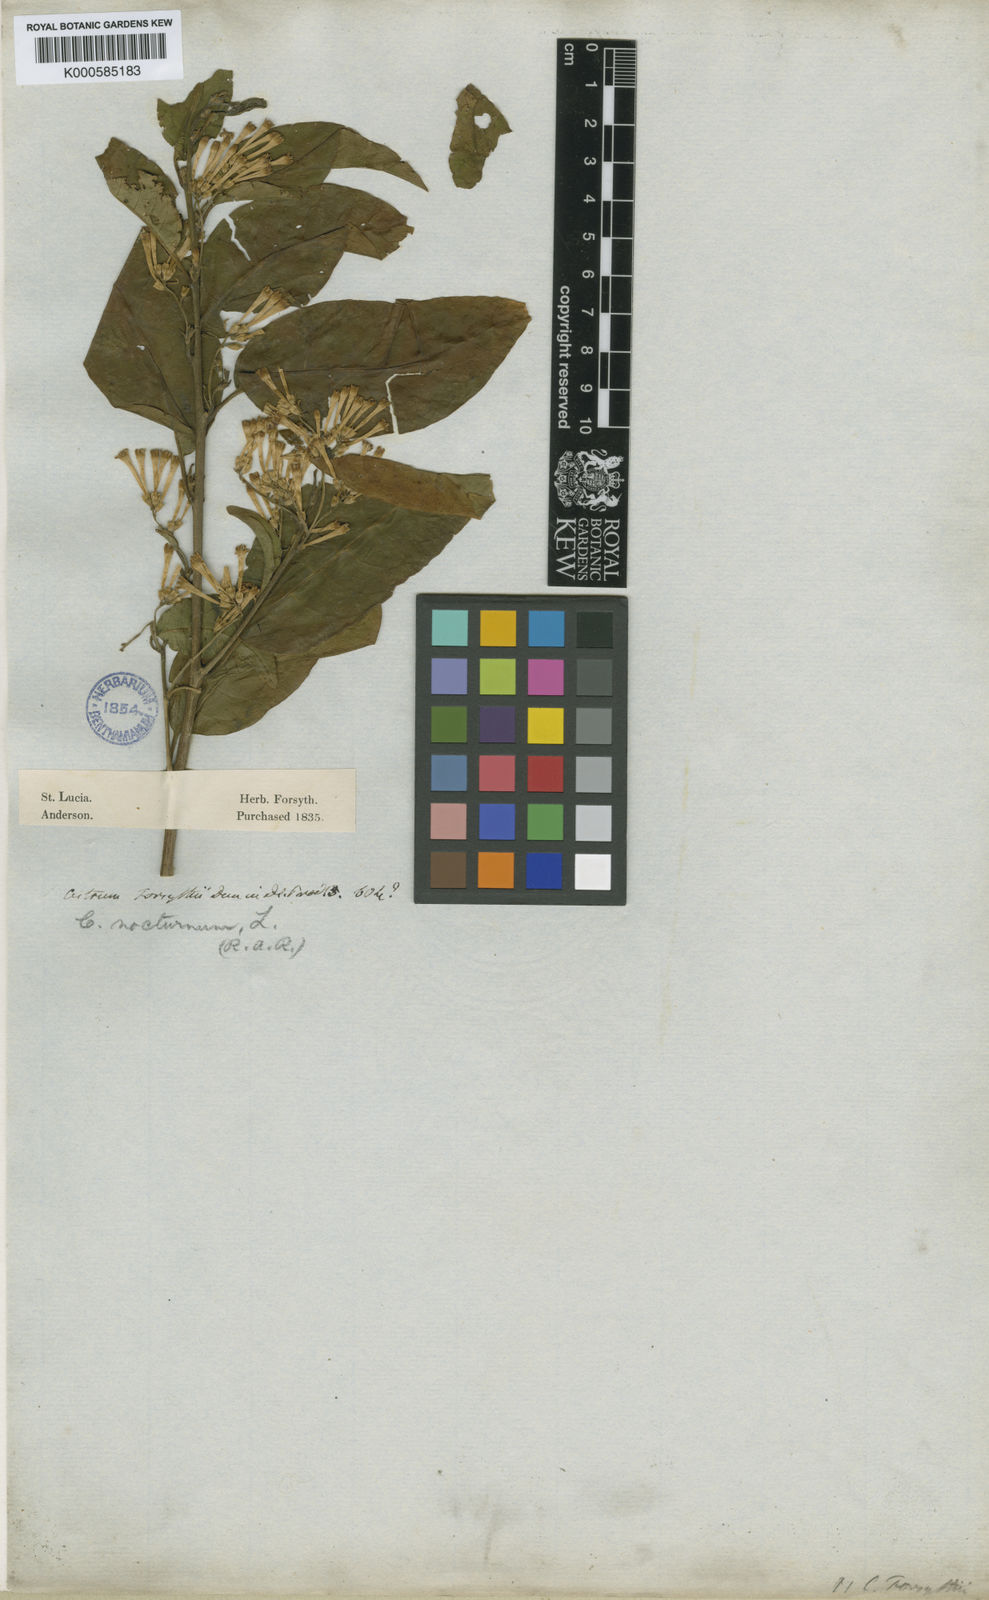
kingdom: Plantae
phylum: Tracheophyta
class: Magnoliopsida
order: Solanales
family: Solanaceae
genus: Cestrum
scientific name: Cestrum forsythii
